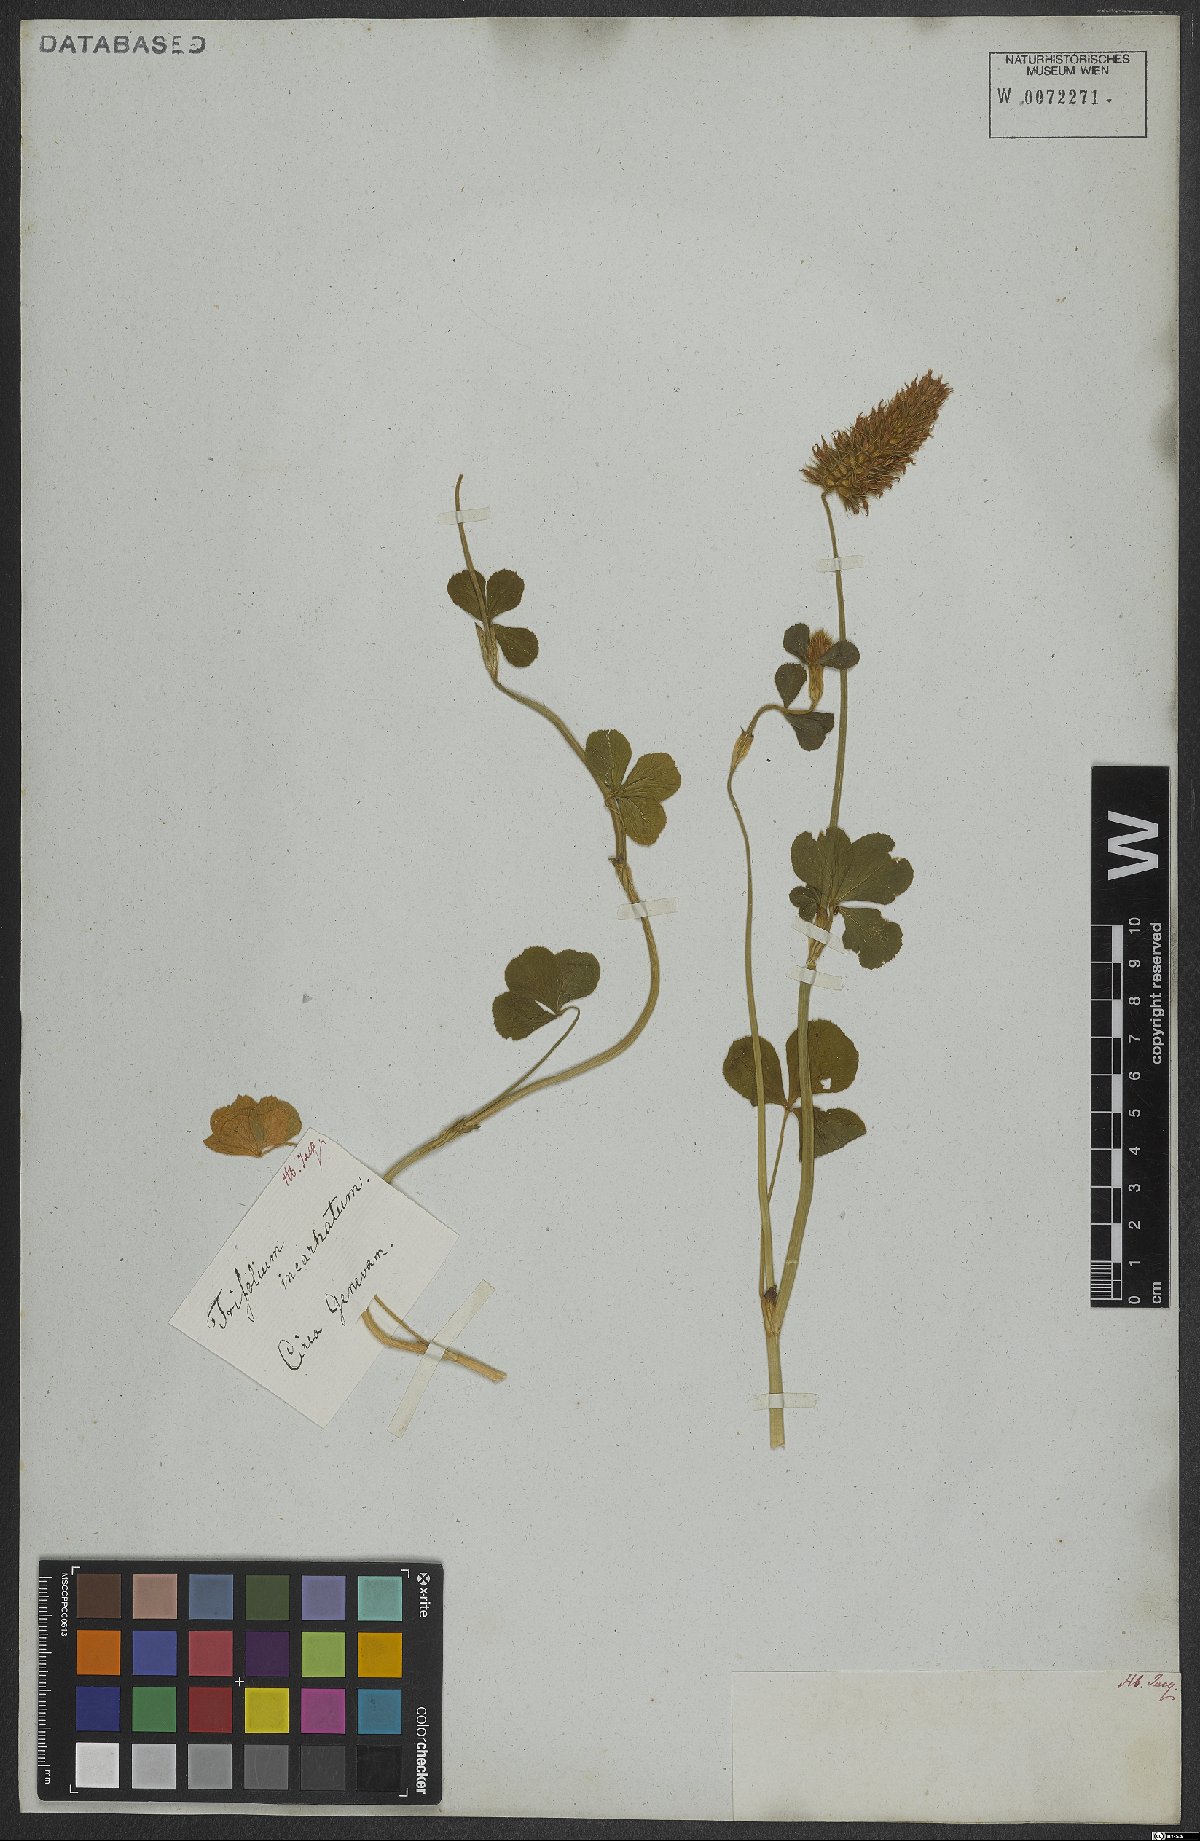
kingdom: Plantae
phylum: Tracheophyta
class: Magnoliopsida
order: Fabales
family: Fabaceae
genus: Trifolium
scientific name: Trifolium incarnatum
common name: Crimson clover
